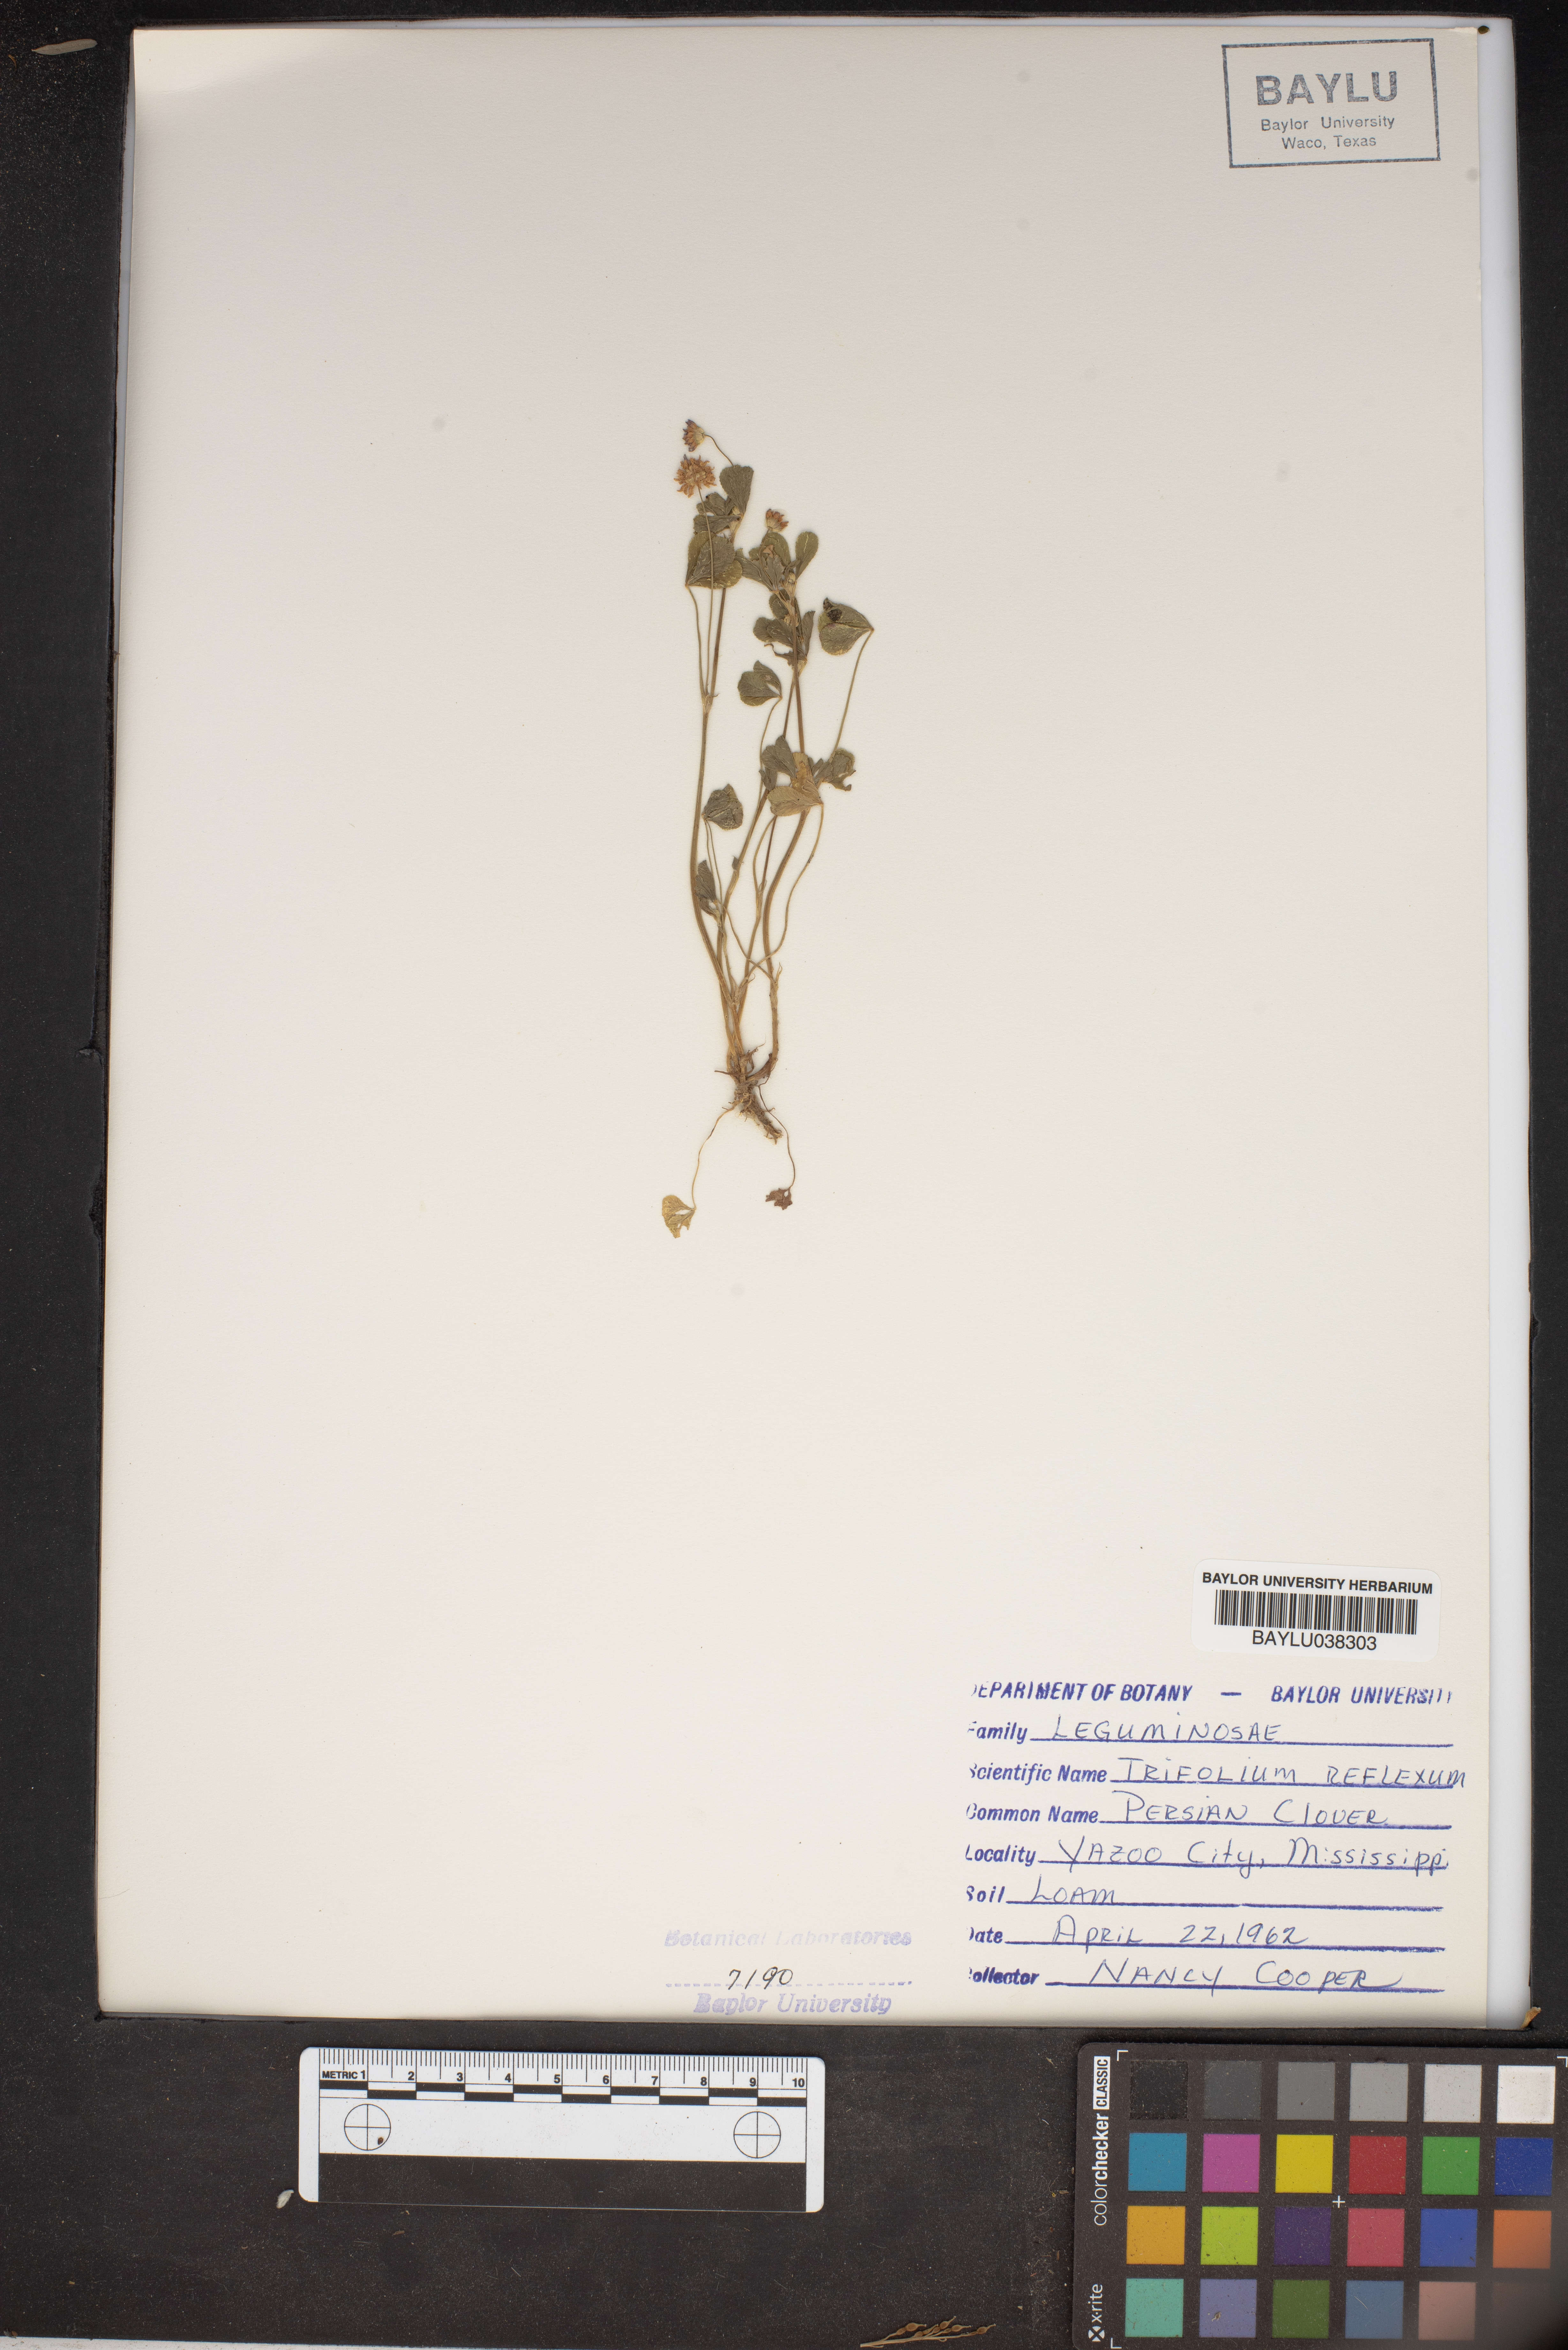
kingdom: Plantae
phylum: Tracheophyta
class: Magnoliopsida
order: Fabales
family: Fabaceae
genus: Trifolium
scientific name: Trifolium reflexum
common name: Buffalo clover
